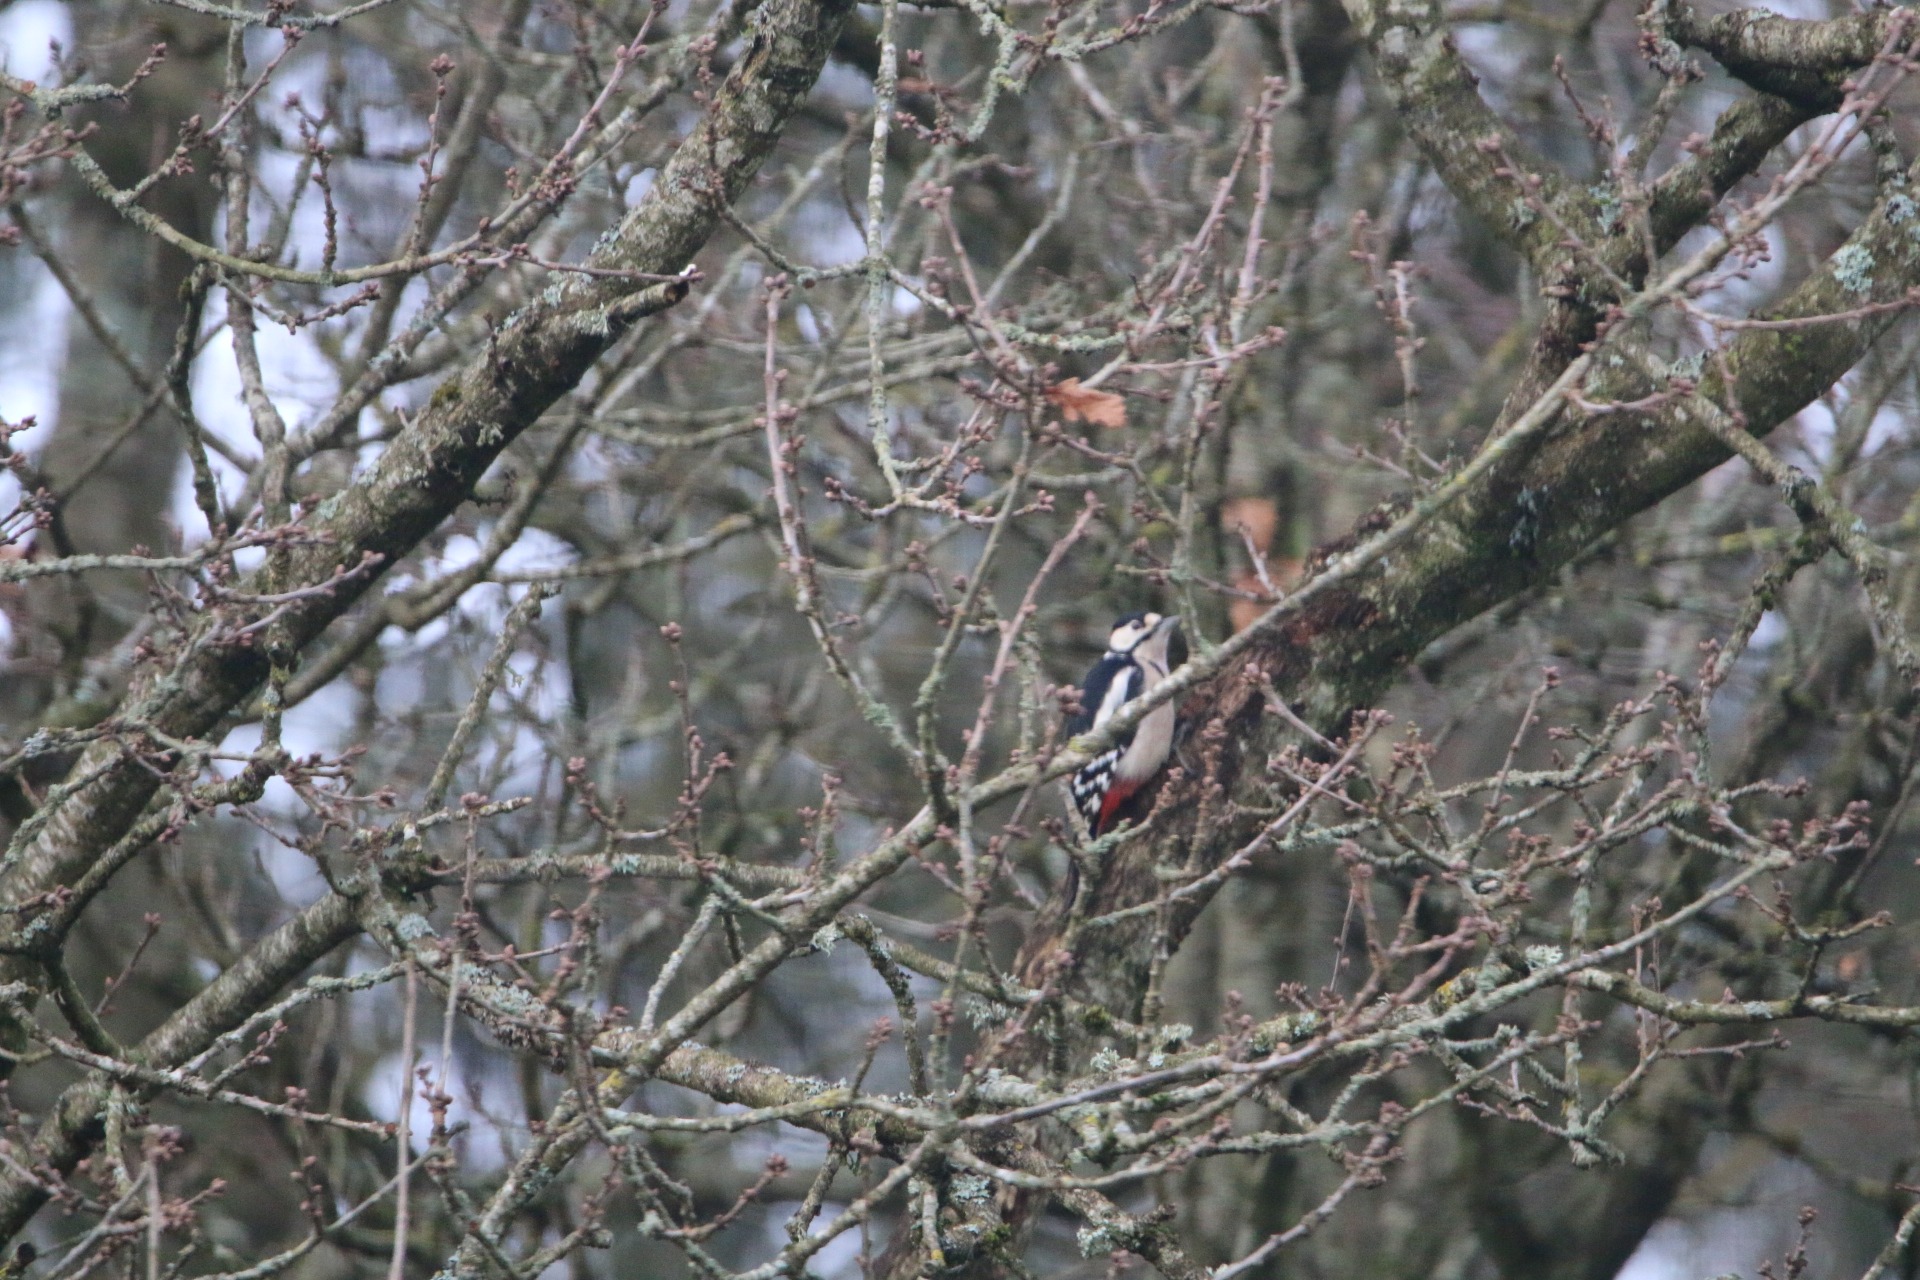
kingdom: Animalia
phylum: Chordata
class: Aves
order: Piciformes
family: Picidae
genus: Dendrocopos
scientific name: Dendrocopos major
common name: Stor flagspætte
